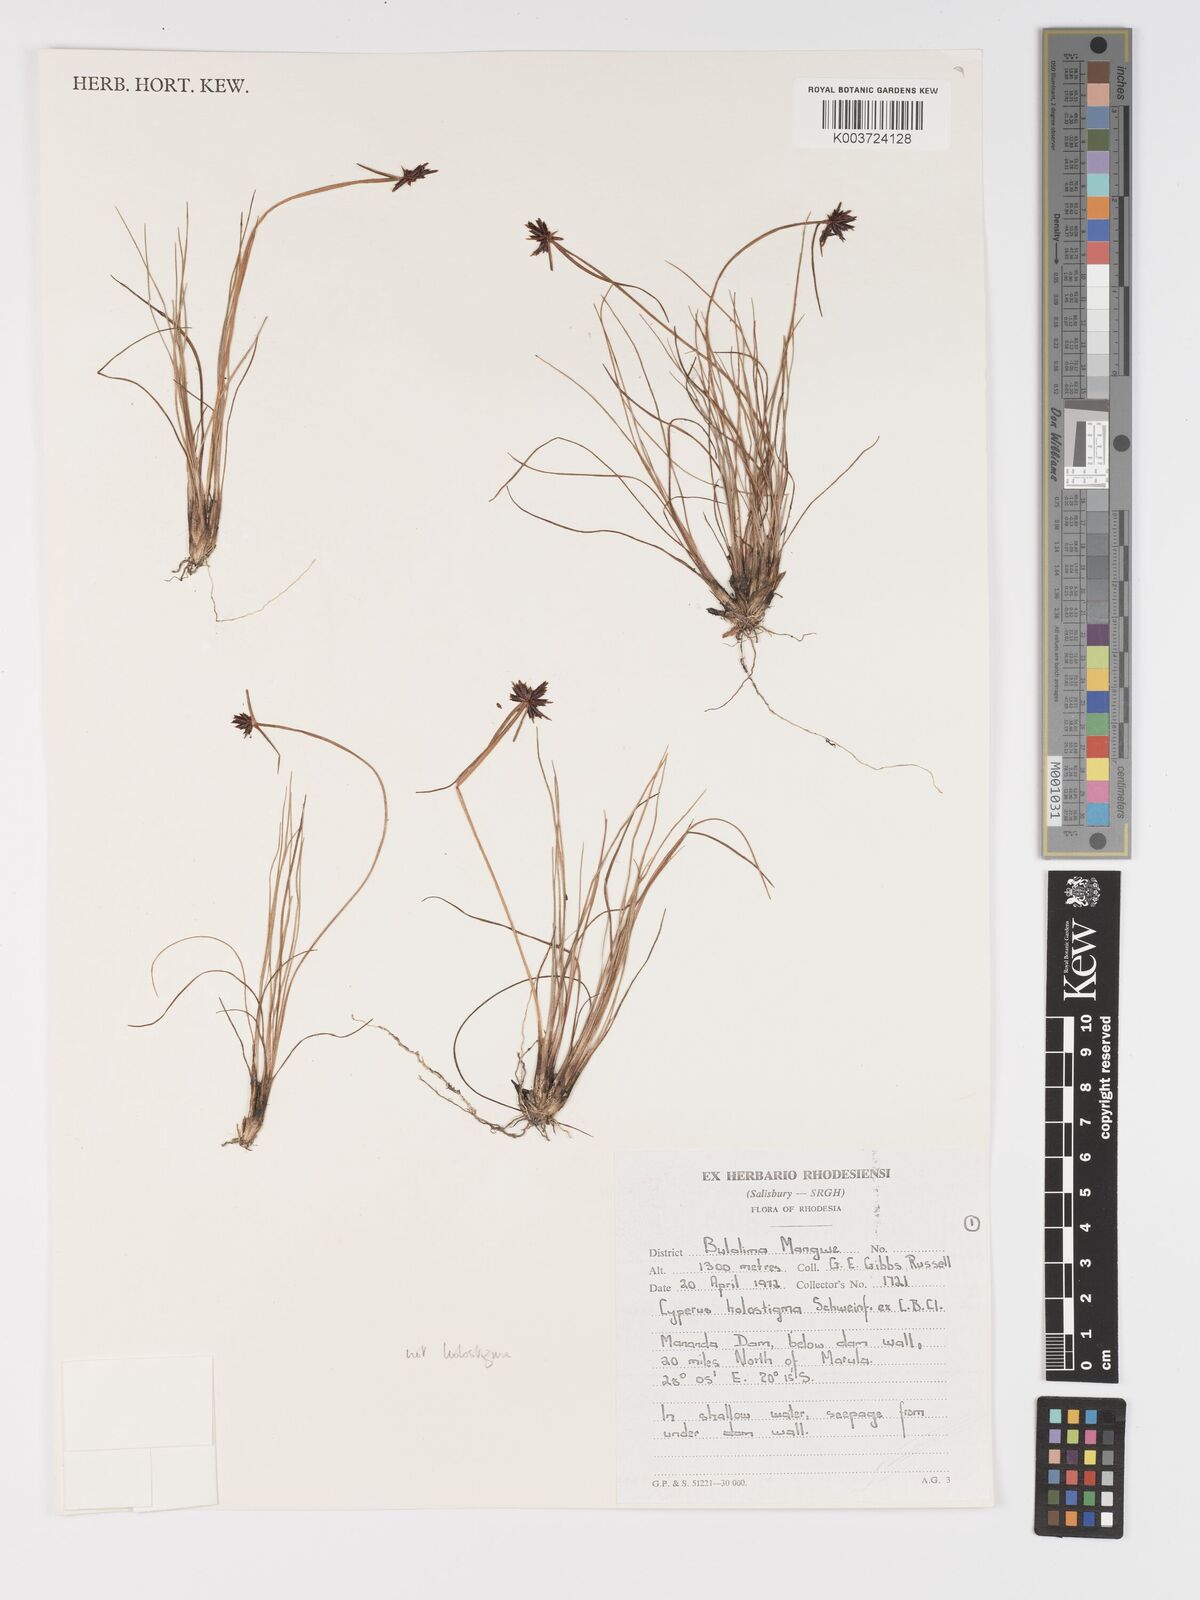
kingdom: Plantae
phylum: Tracheophyta
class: Liliopsida
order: Poales
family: Cyperaceae
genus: Cyperus
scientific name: Cyperus holostigma
